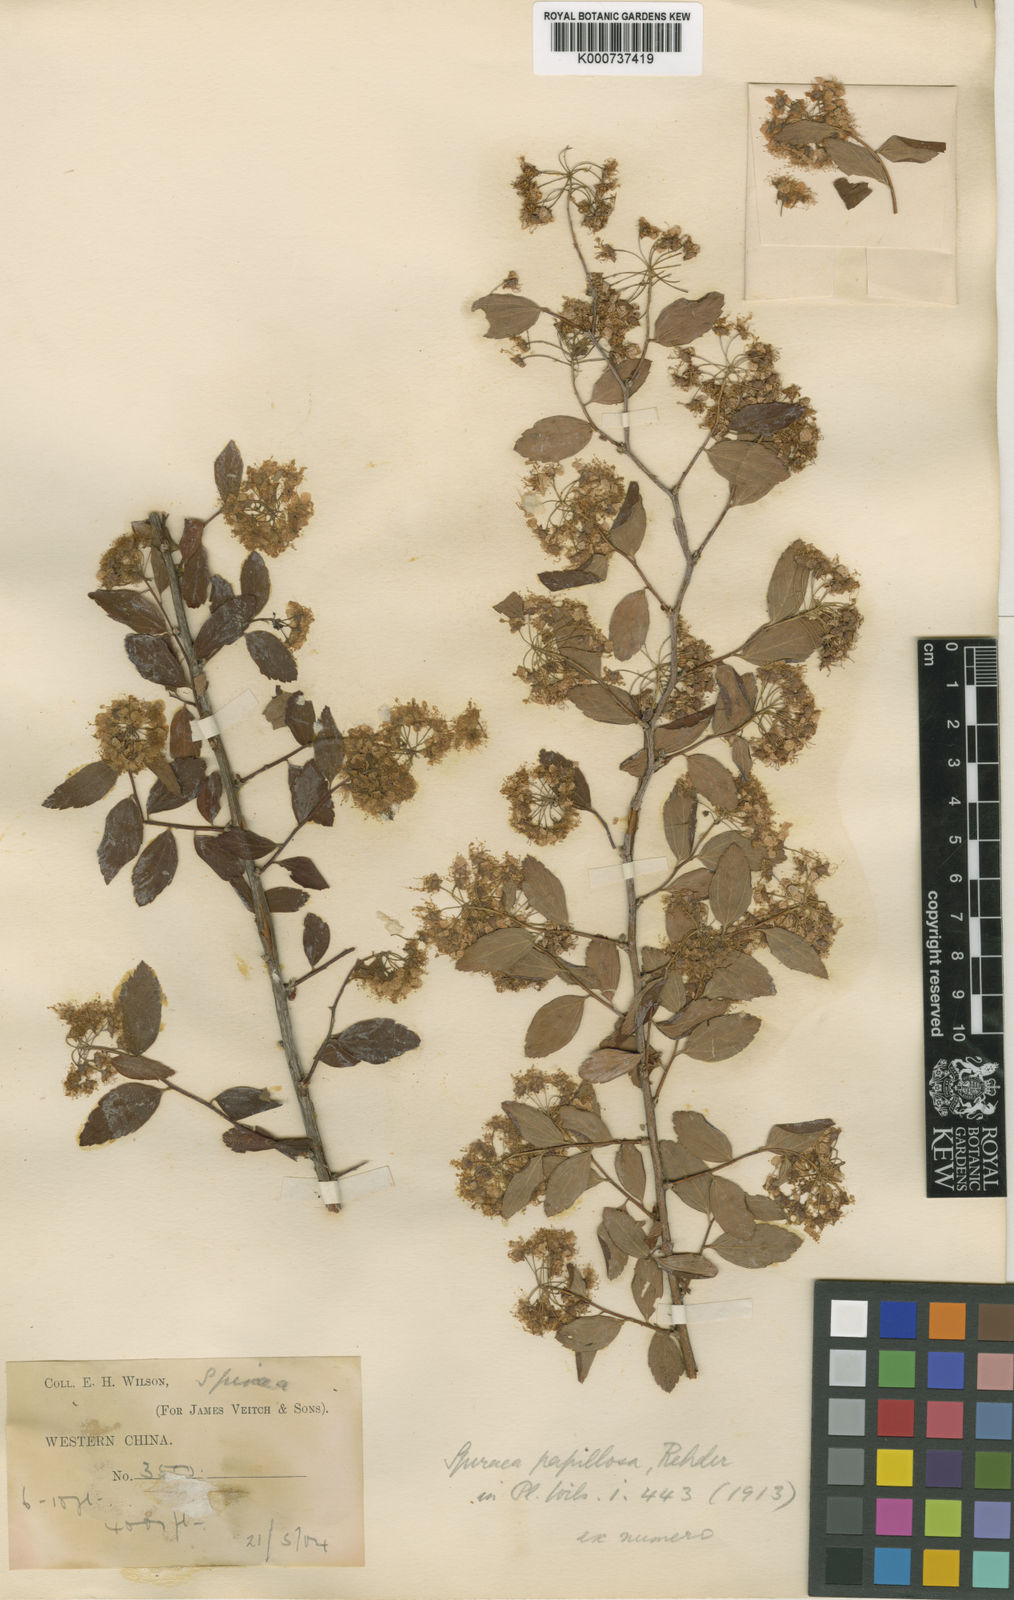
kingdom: Plantae
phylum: Tracheophyta
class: Magnoliopsida
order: Rosales
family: Rosaceae
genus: Spiraea
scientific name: Spiraea papillosa
